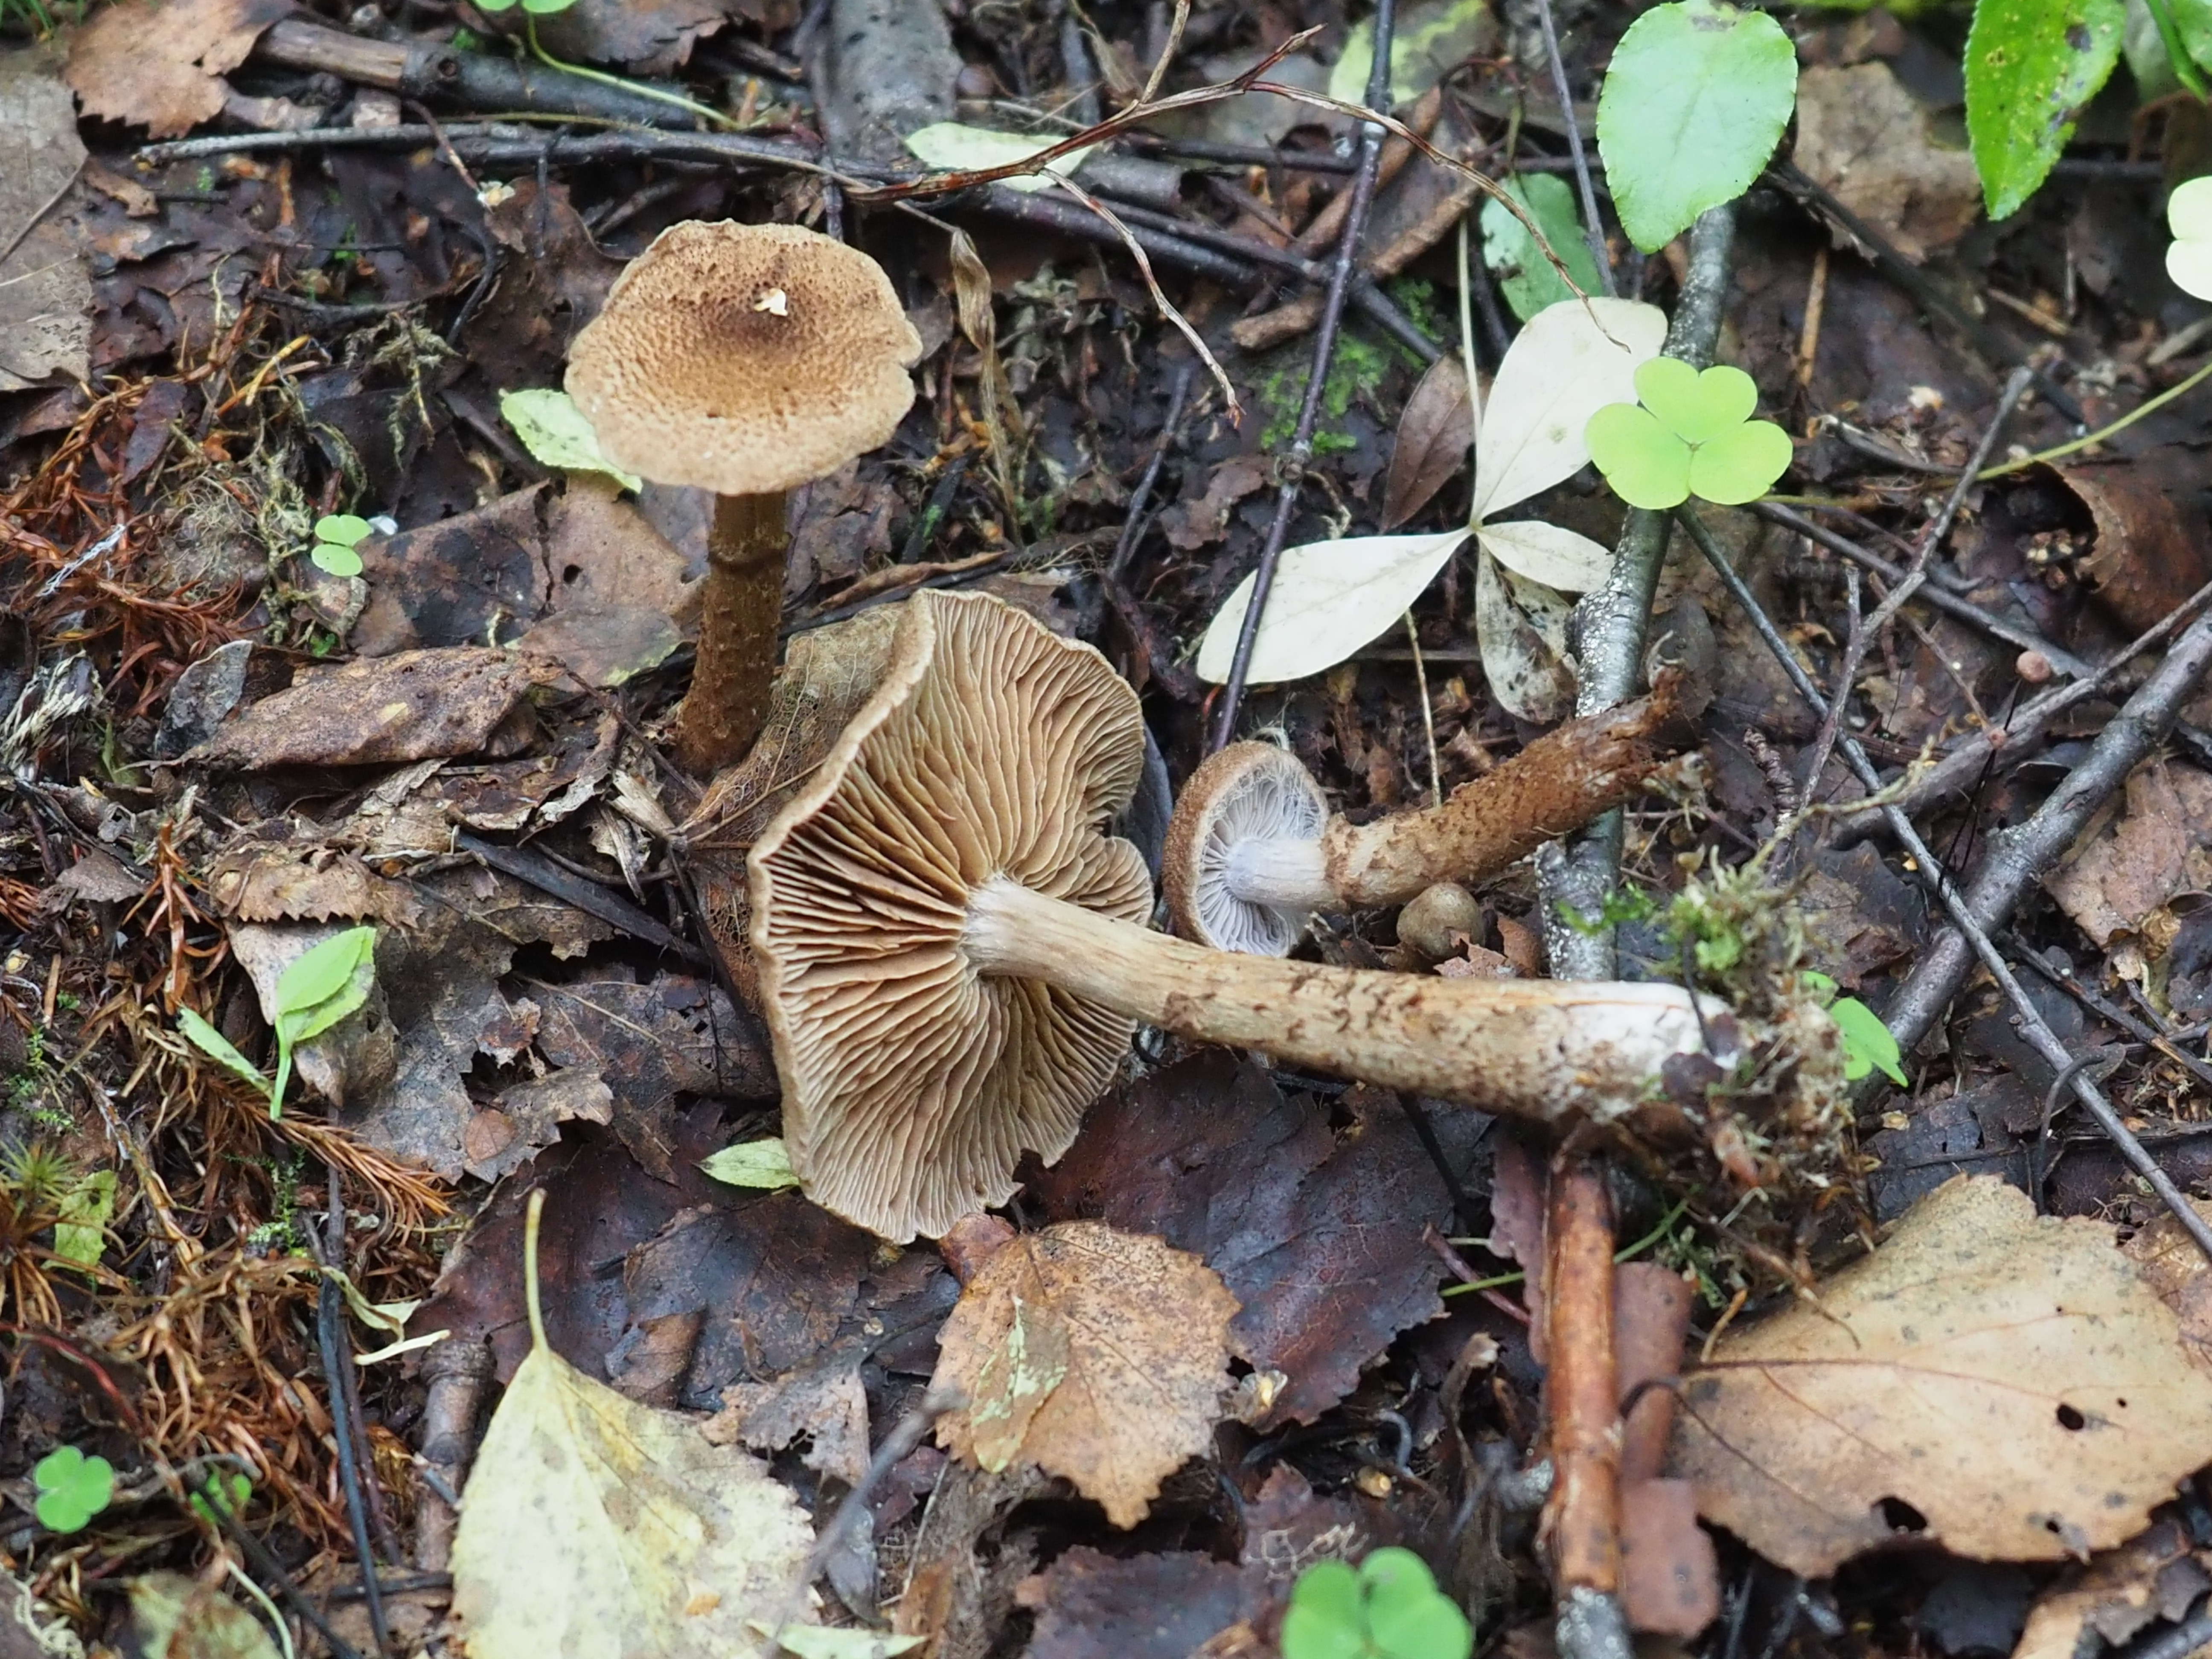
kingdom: Fungi
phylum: Basidiomycota
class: Agaricomycetes
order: Agaricales
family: Cortinariaceae
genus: Cortinarius
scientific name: Cortinarius pholideus
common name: Scaly webcap
